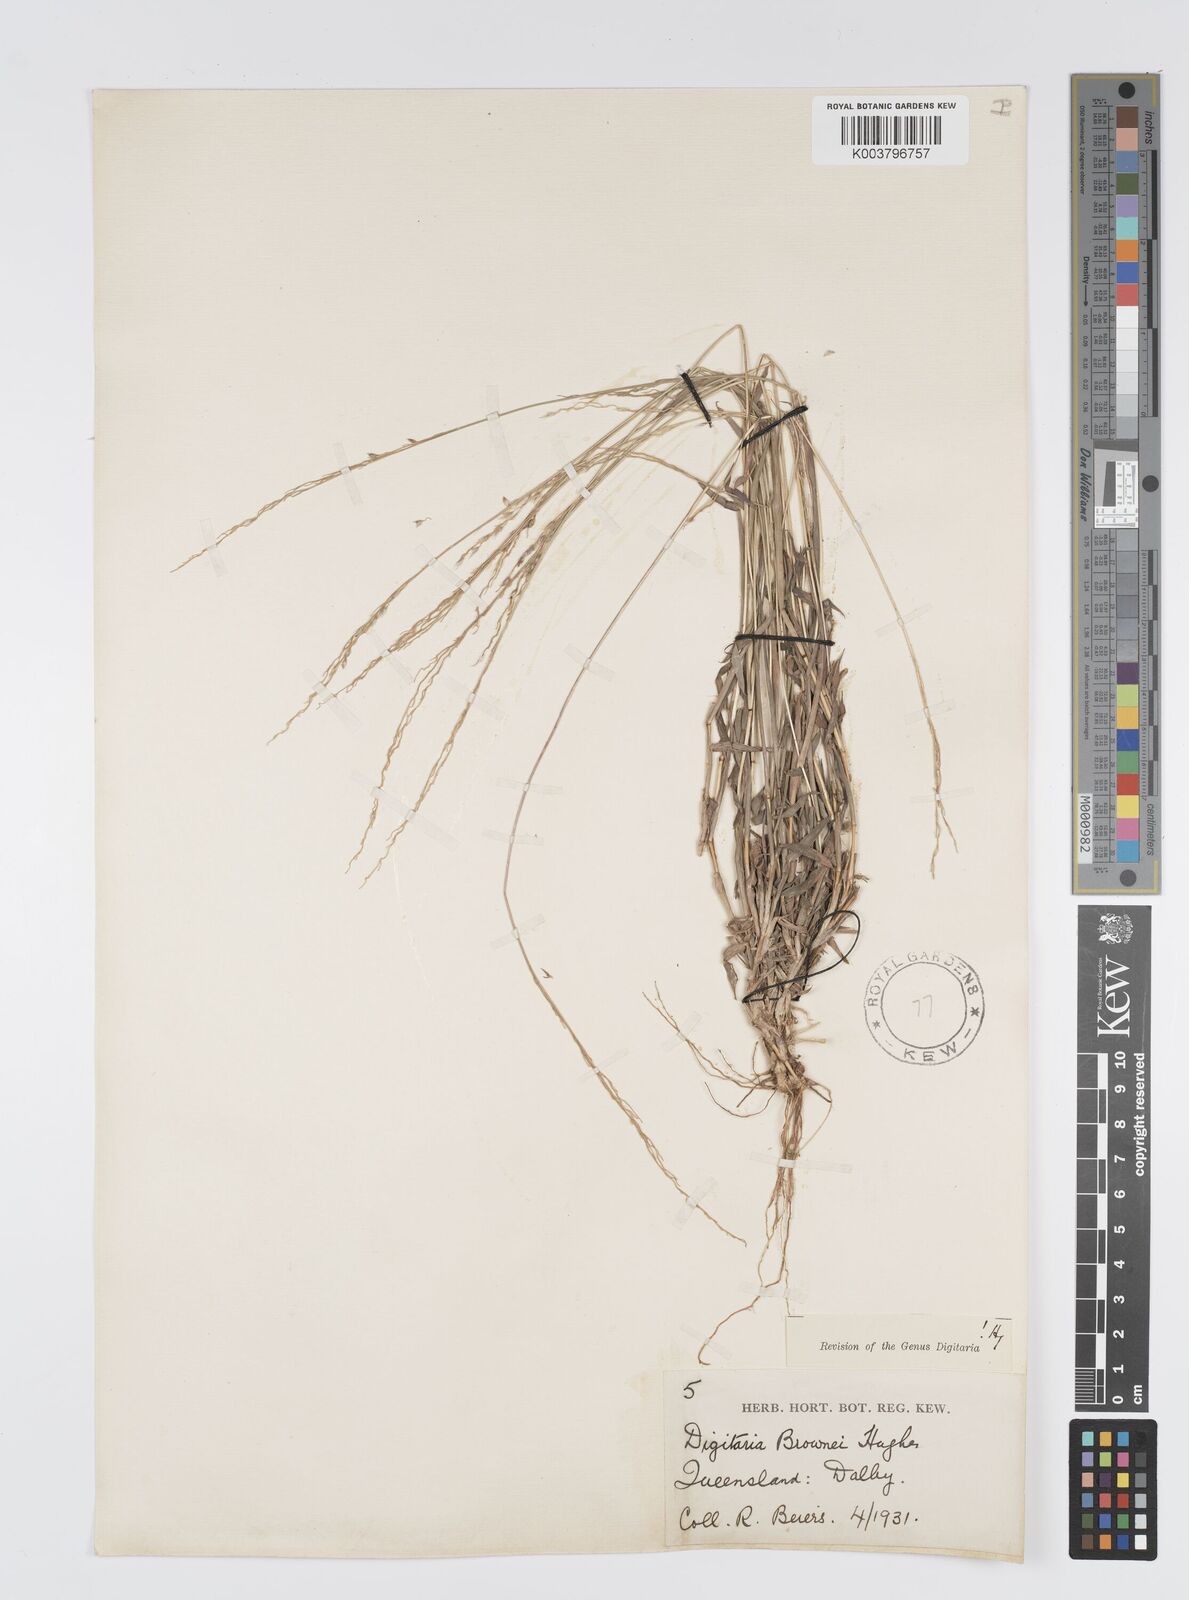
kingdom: Plantae
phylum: Tracheophyta
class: Liliopsida
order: Poales
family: Poaceae
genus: Digitaria
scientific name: Digitaria brownii
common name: Cotton grass
